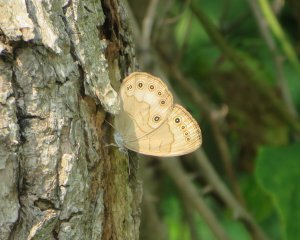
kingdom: Animalia
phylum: Arthropoda
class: Insecta
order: Lepidoptera
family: Nymphalidae
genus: Lethe
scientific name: Lethe eurydice
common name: Appalachian Eyed Brown
